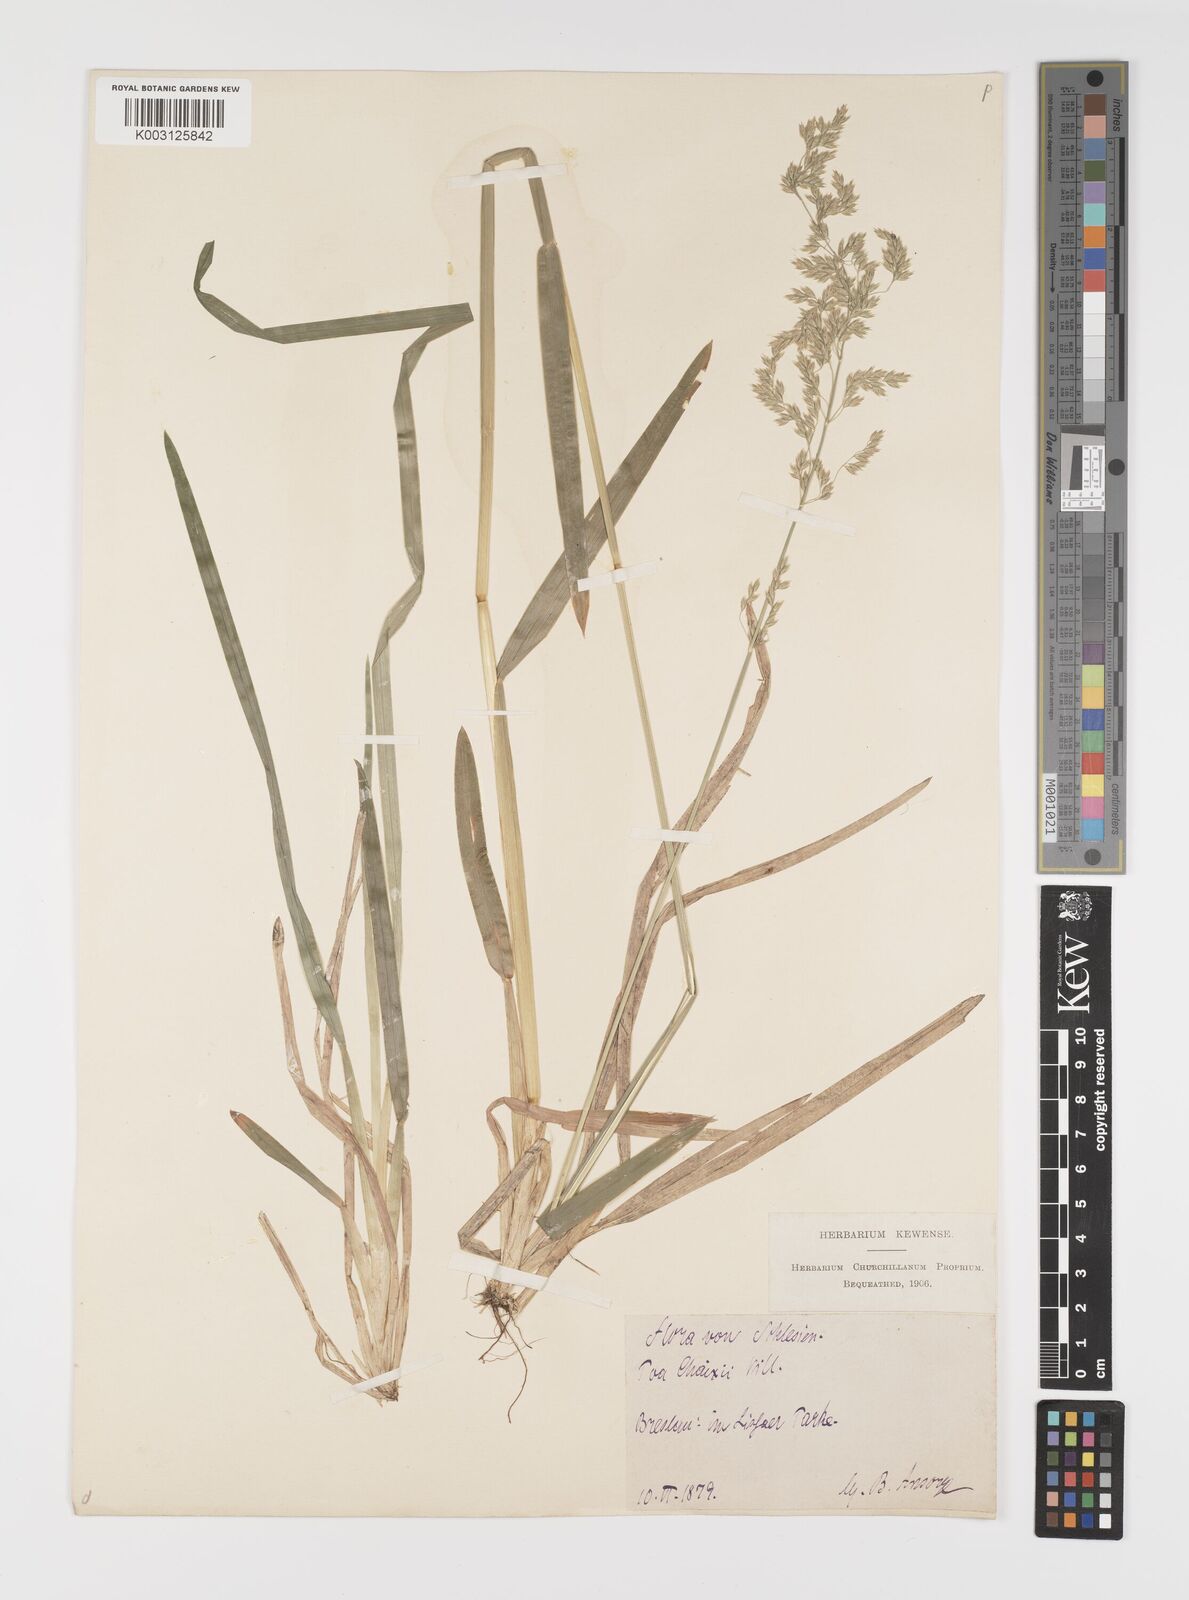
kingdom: Plantae
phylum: Tracheophyta
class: Liliopsida
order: Poales
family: Poaceae
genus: Poa
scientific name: Poa remota
